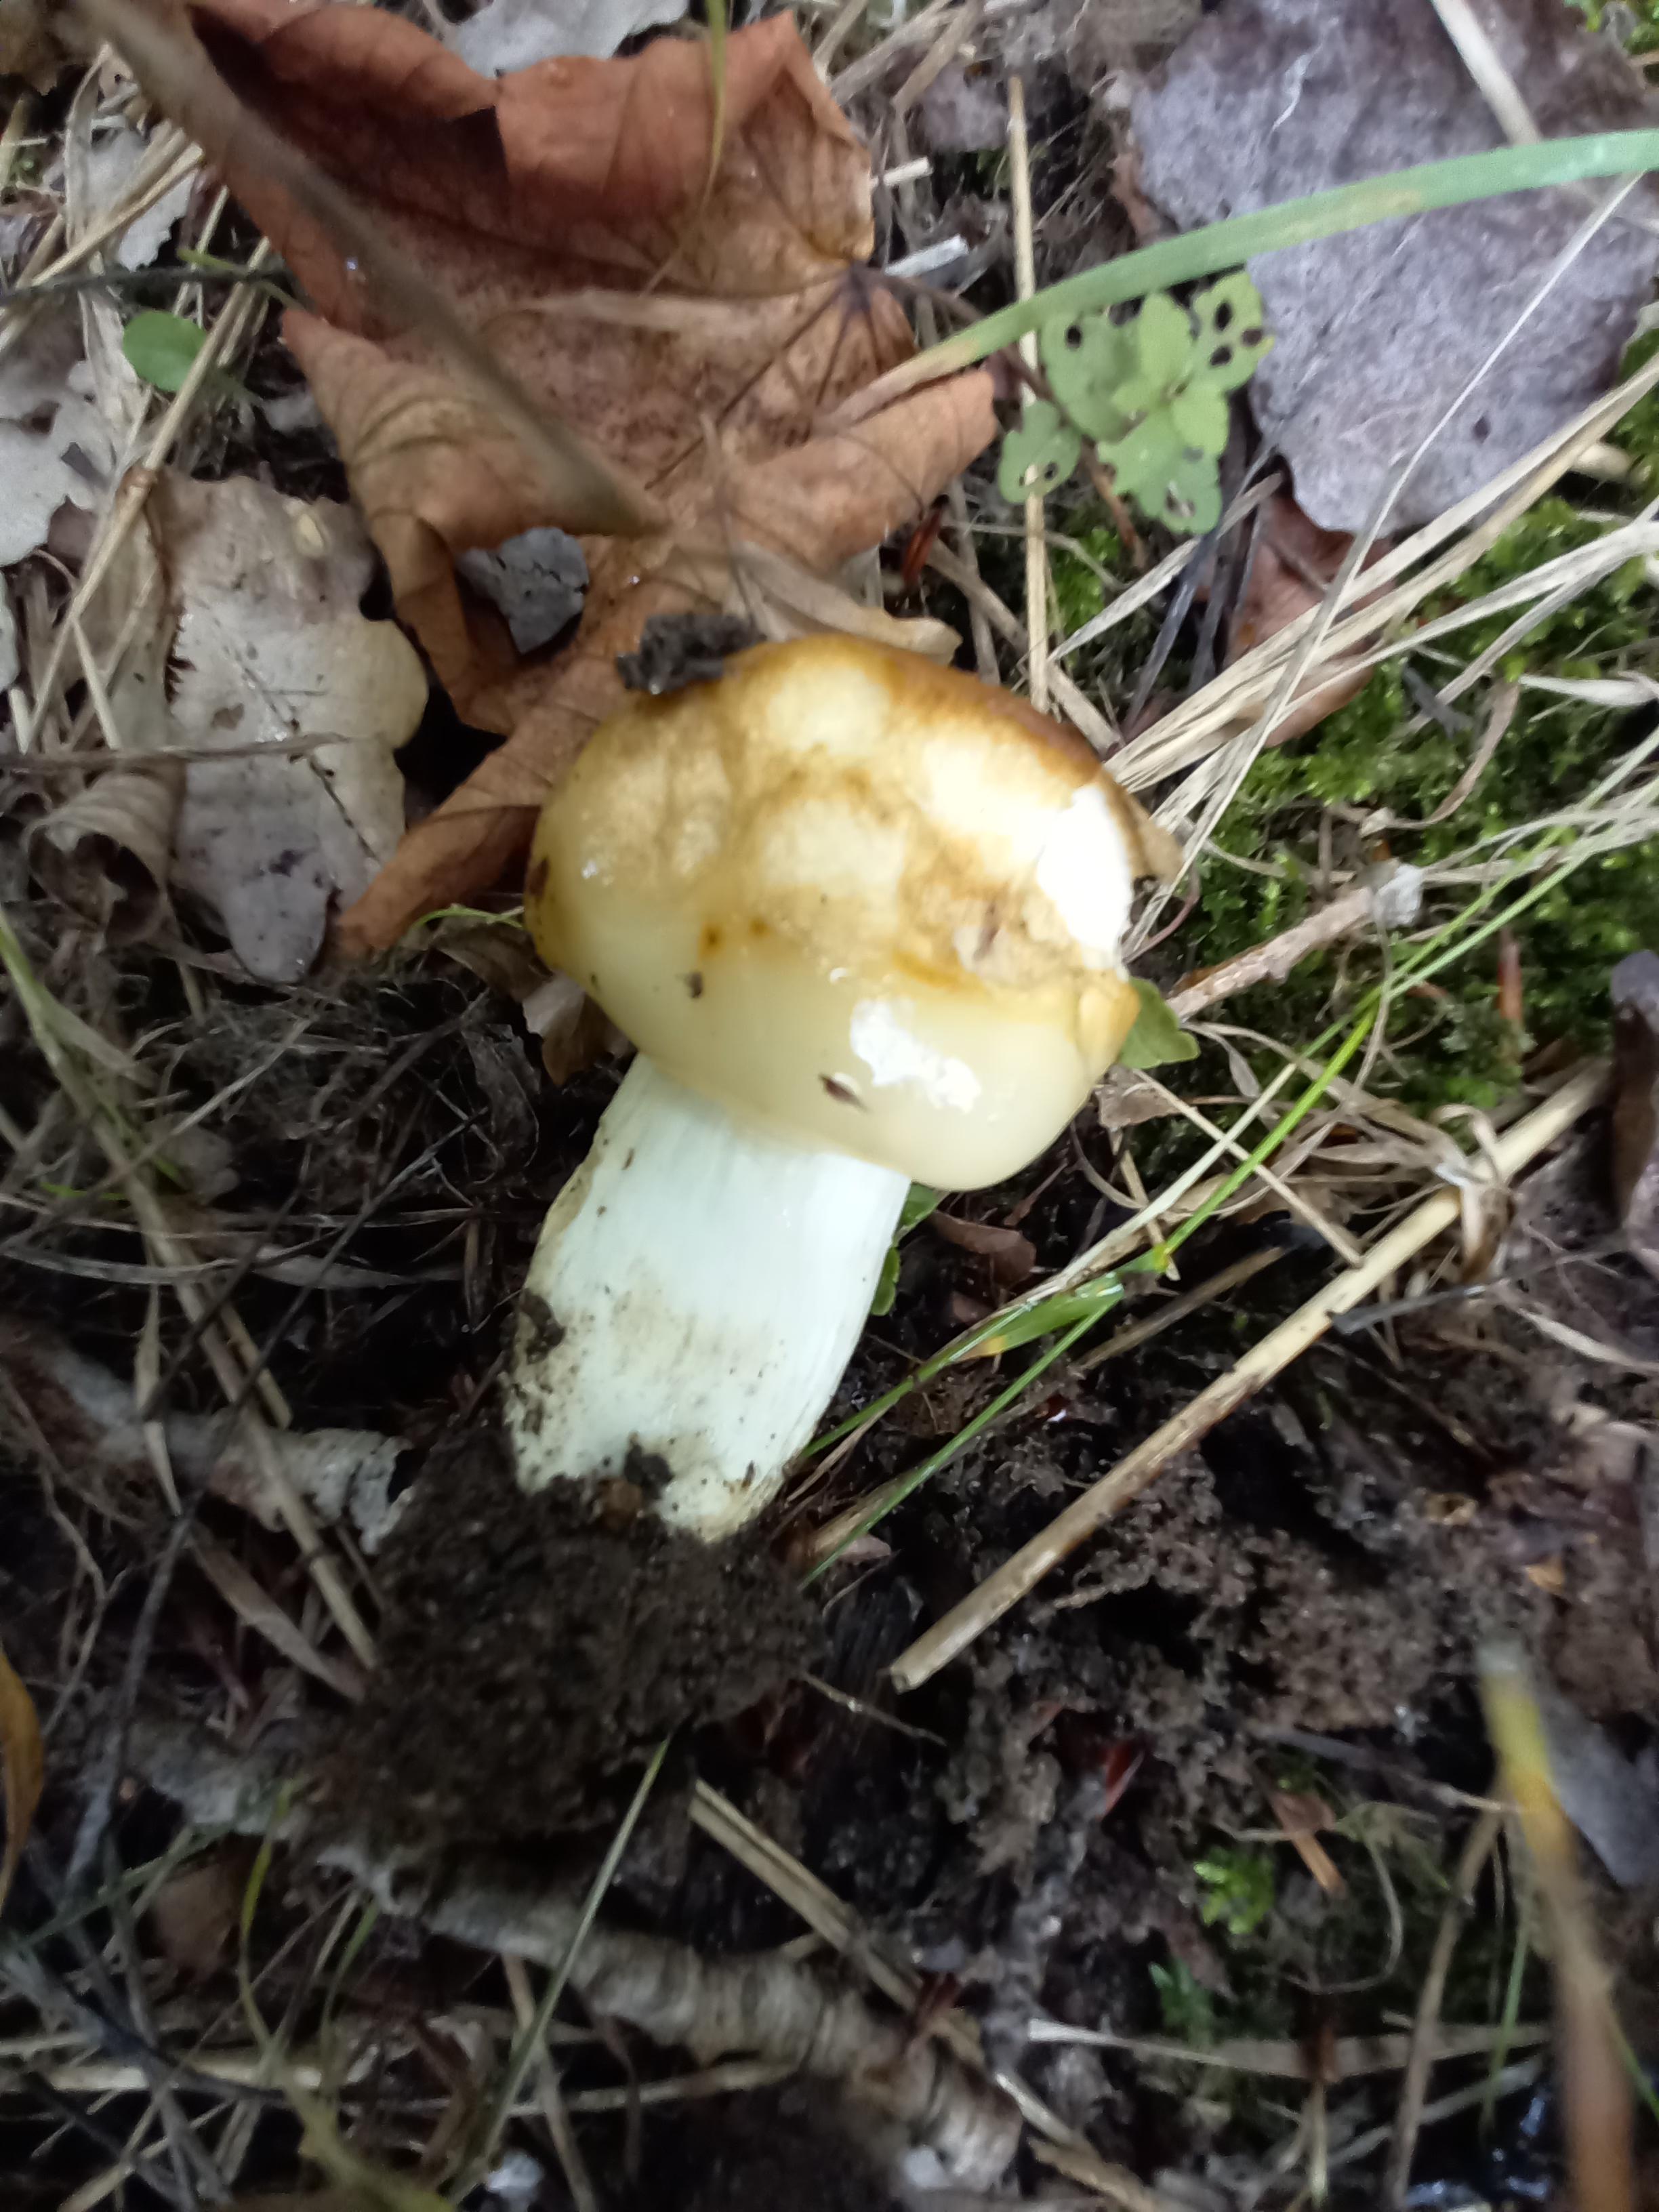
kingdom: Fungi
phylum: Basidiomycota
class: Agaricomycetes
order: Russulales
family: Russulaceae
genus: Russula
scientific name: Russula foetens
